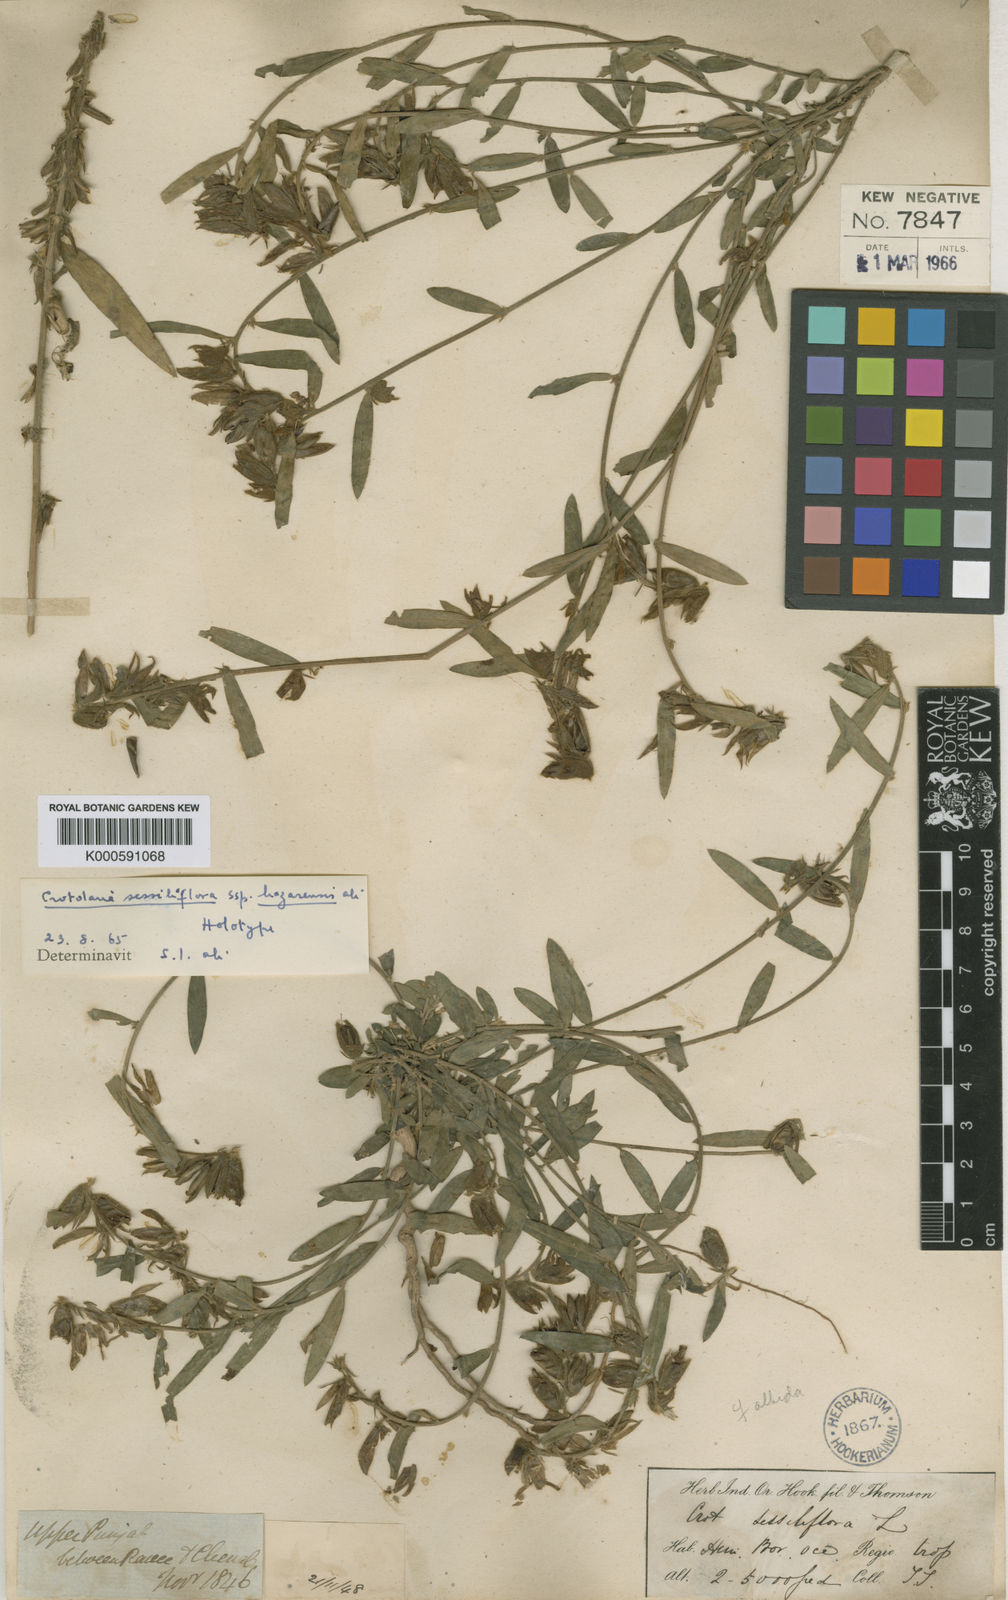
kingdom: Plantae
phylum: Tracheophyta
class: Magnoliopsida
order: Fabales
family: Fabaceae
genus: Crotalaria
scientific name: Crotalaria sessiliflora
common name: Rattlebox
